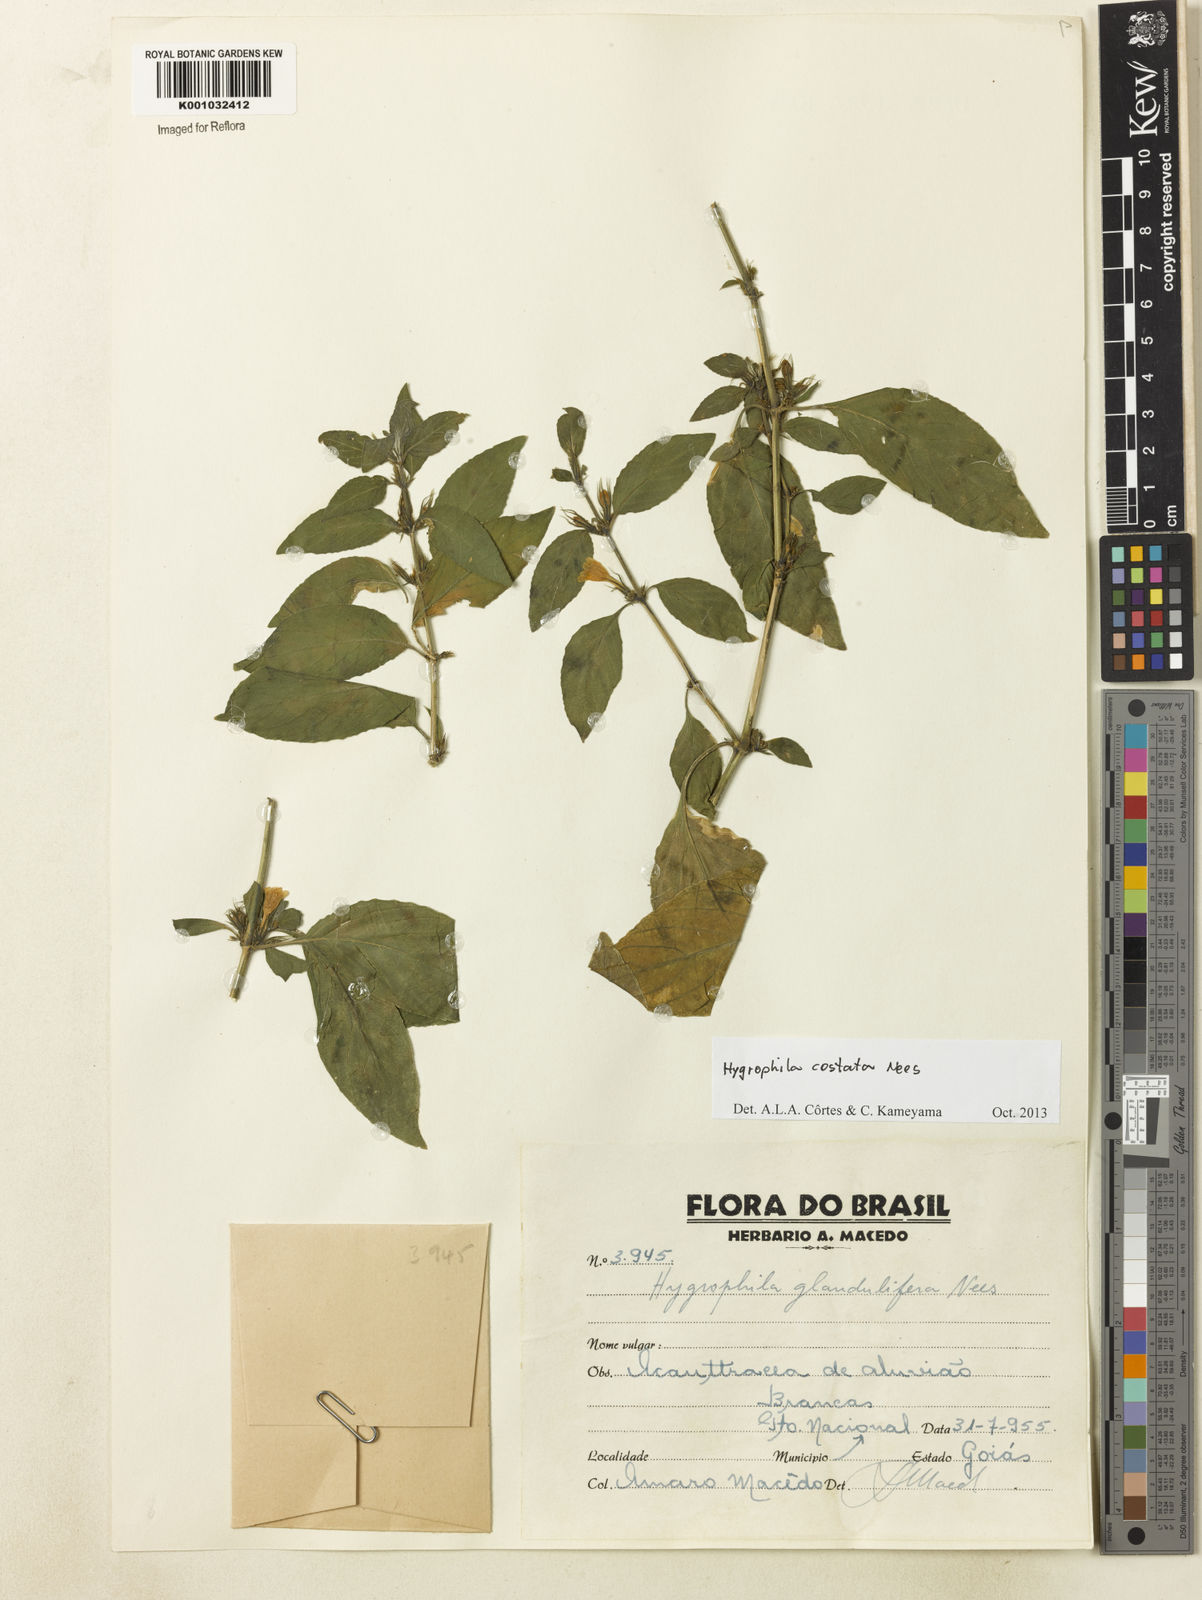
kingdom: Plantae
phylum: Tracheophyta
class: Magnoliopsida
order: Lamiales
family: Acanthaceae
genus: Hygrophila
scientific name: Hygrophila costata
